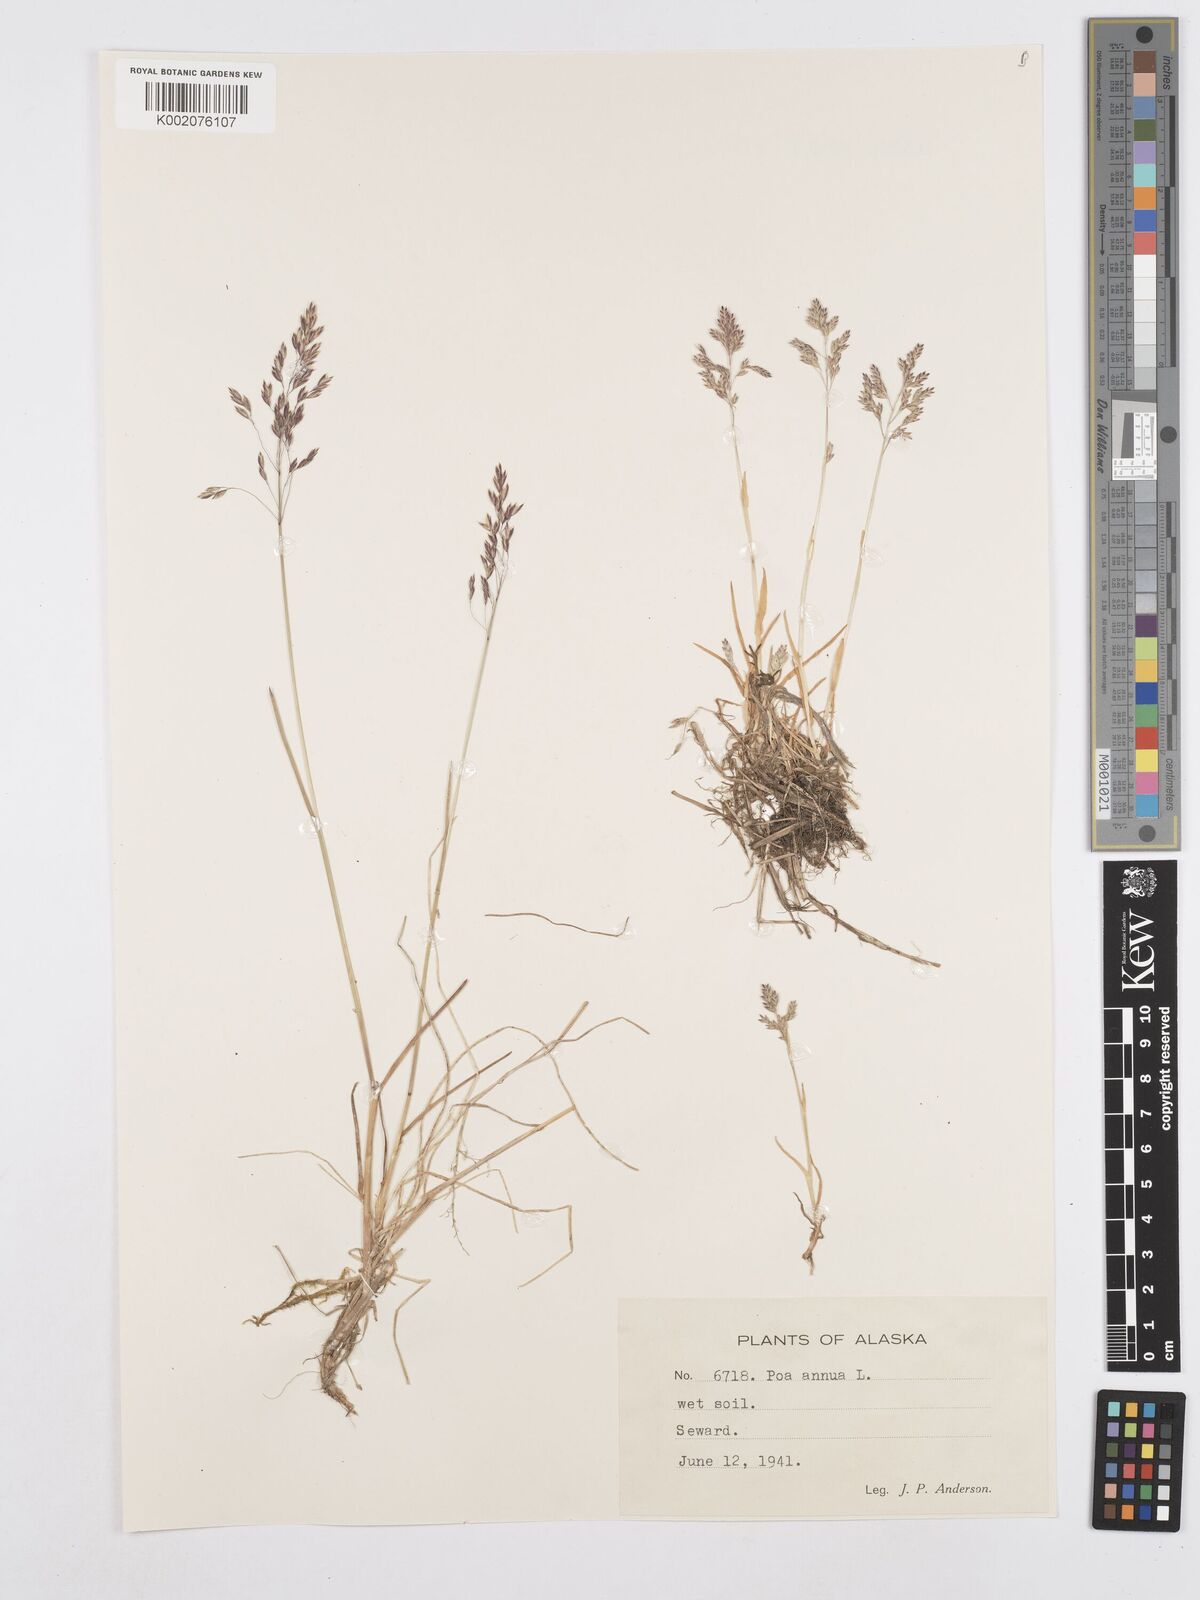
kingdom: Plantae
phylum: Tracheophyta
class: Liliopsida
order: Poales
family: Poaceae
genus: Poa
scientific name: Poa annua
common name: Annual bluegrass
